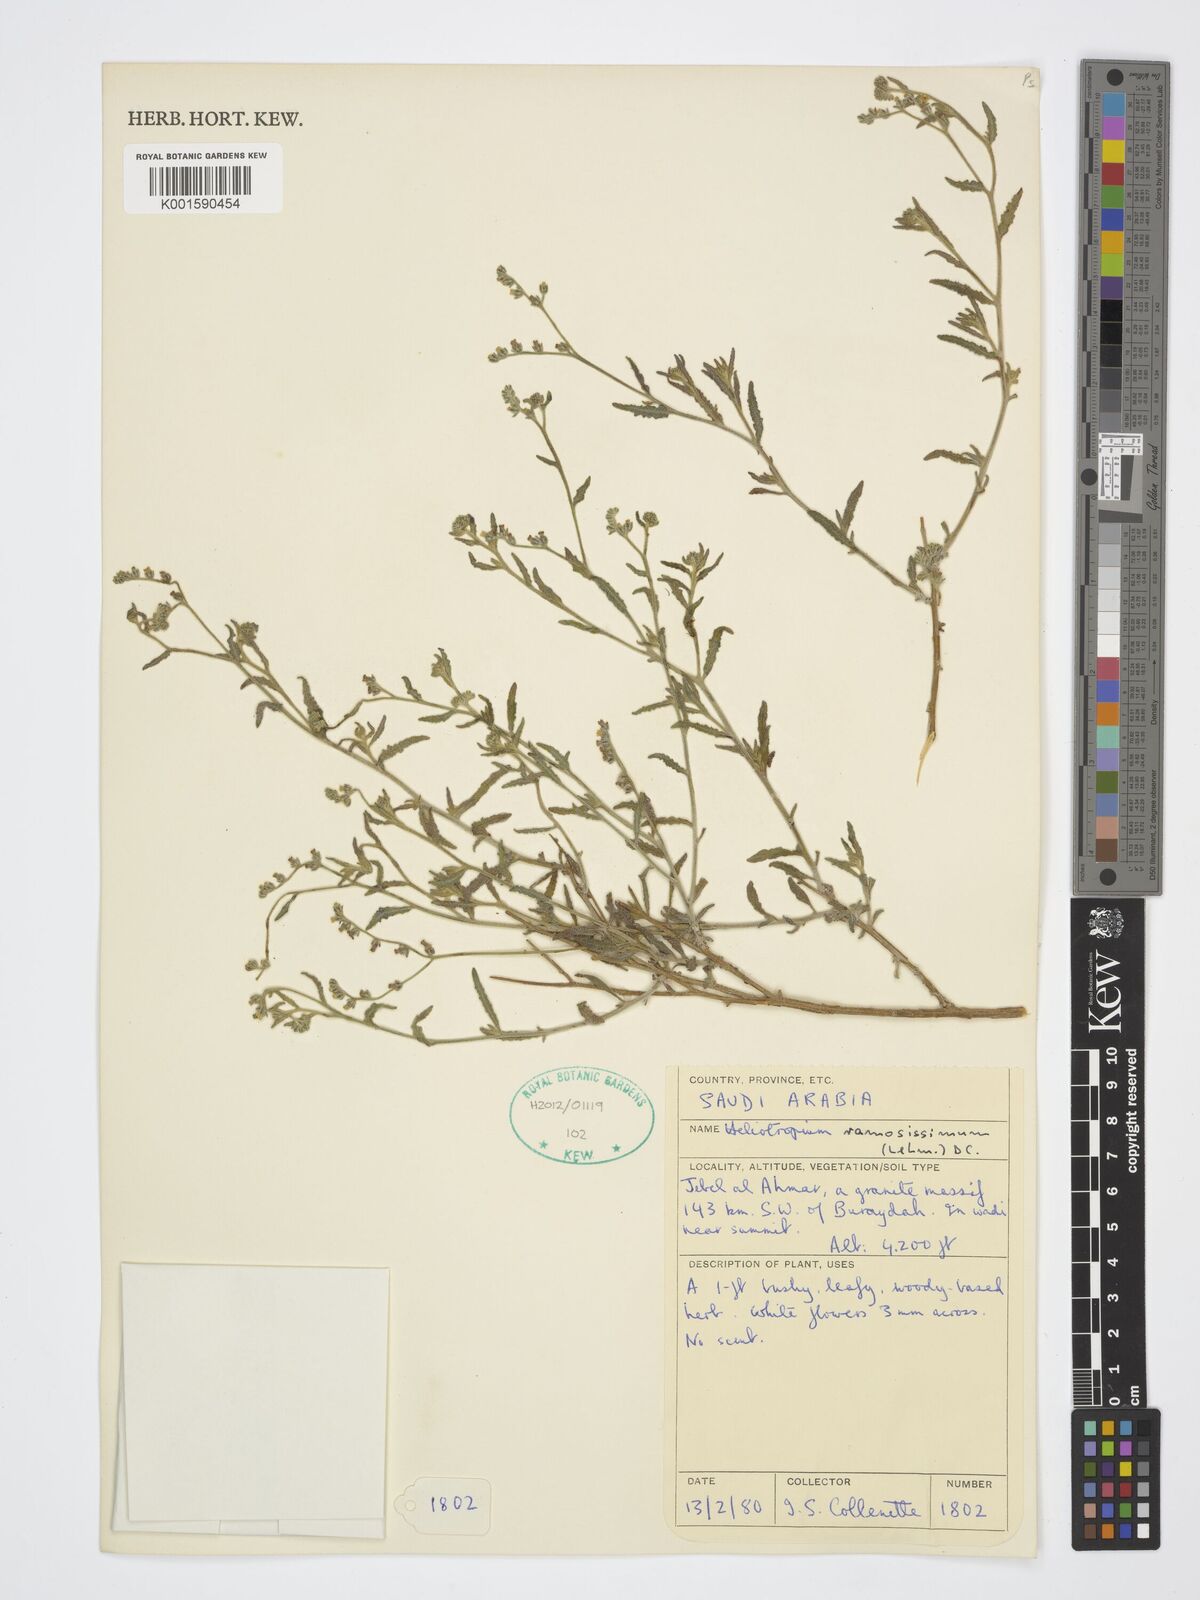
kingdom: Plantae
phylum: Tracheophyta
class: Magnoliopsida
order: Boraginales
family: Heliotropiaceae
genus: Heliotropium
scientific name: Heliotropium ramosissimum
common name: Wavy heliotrope
